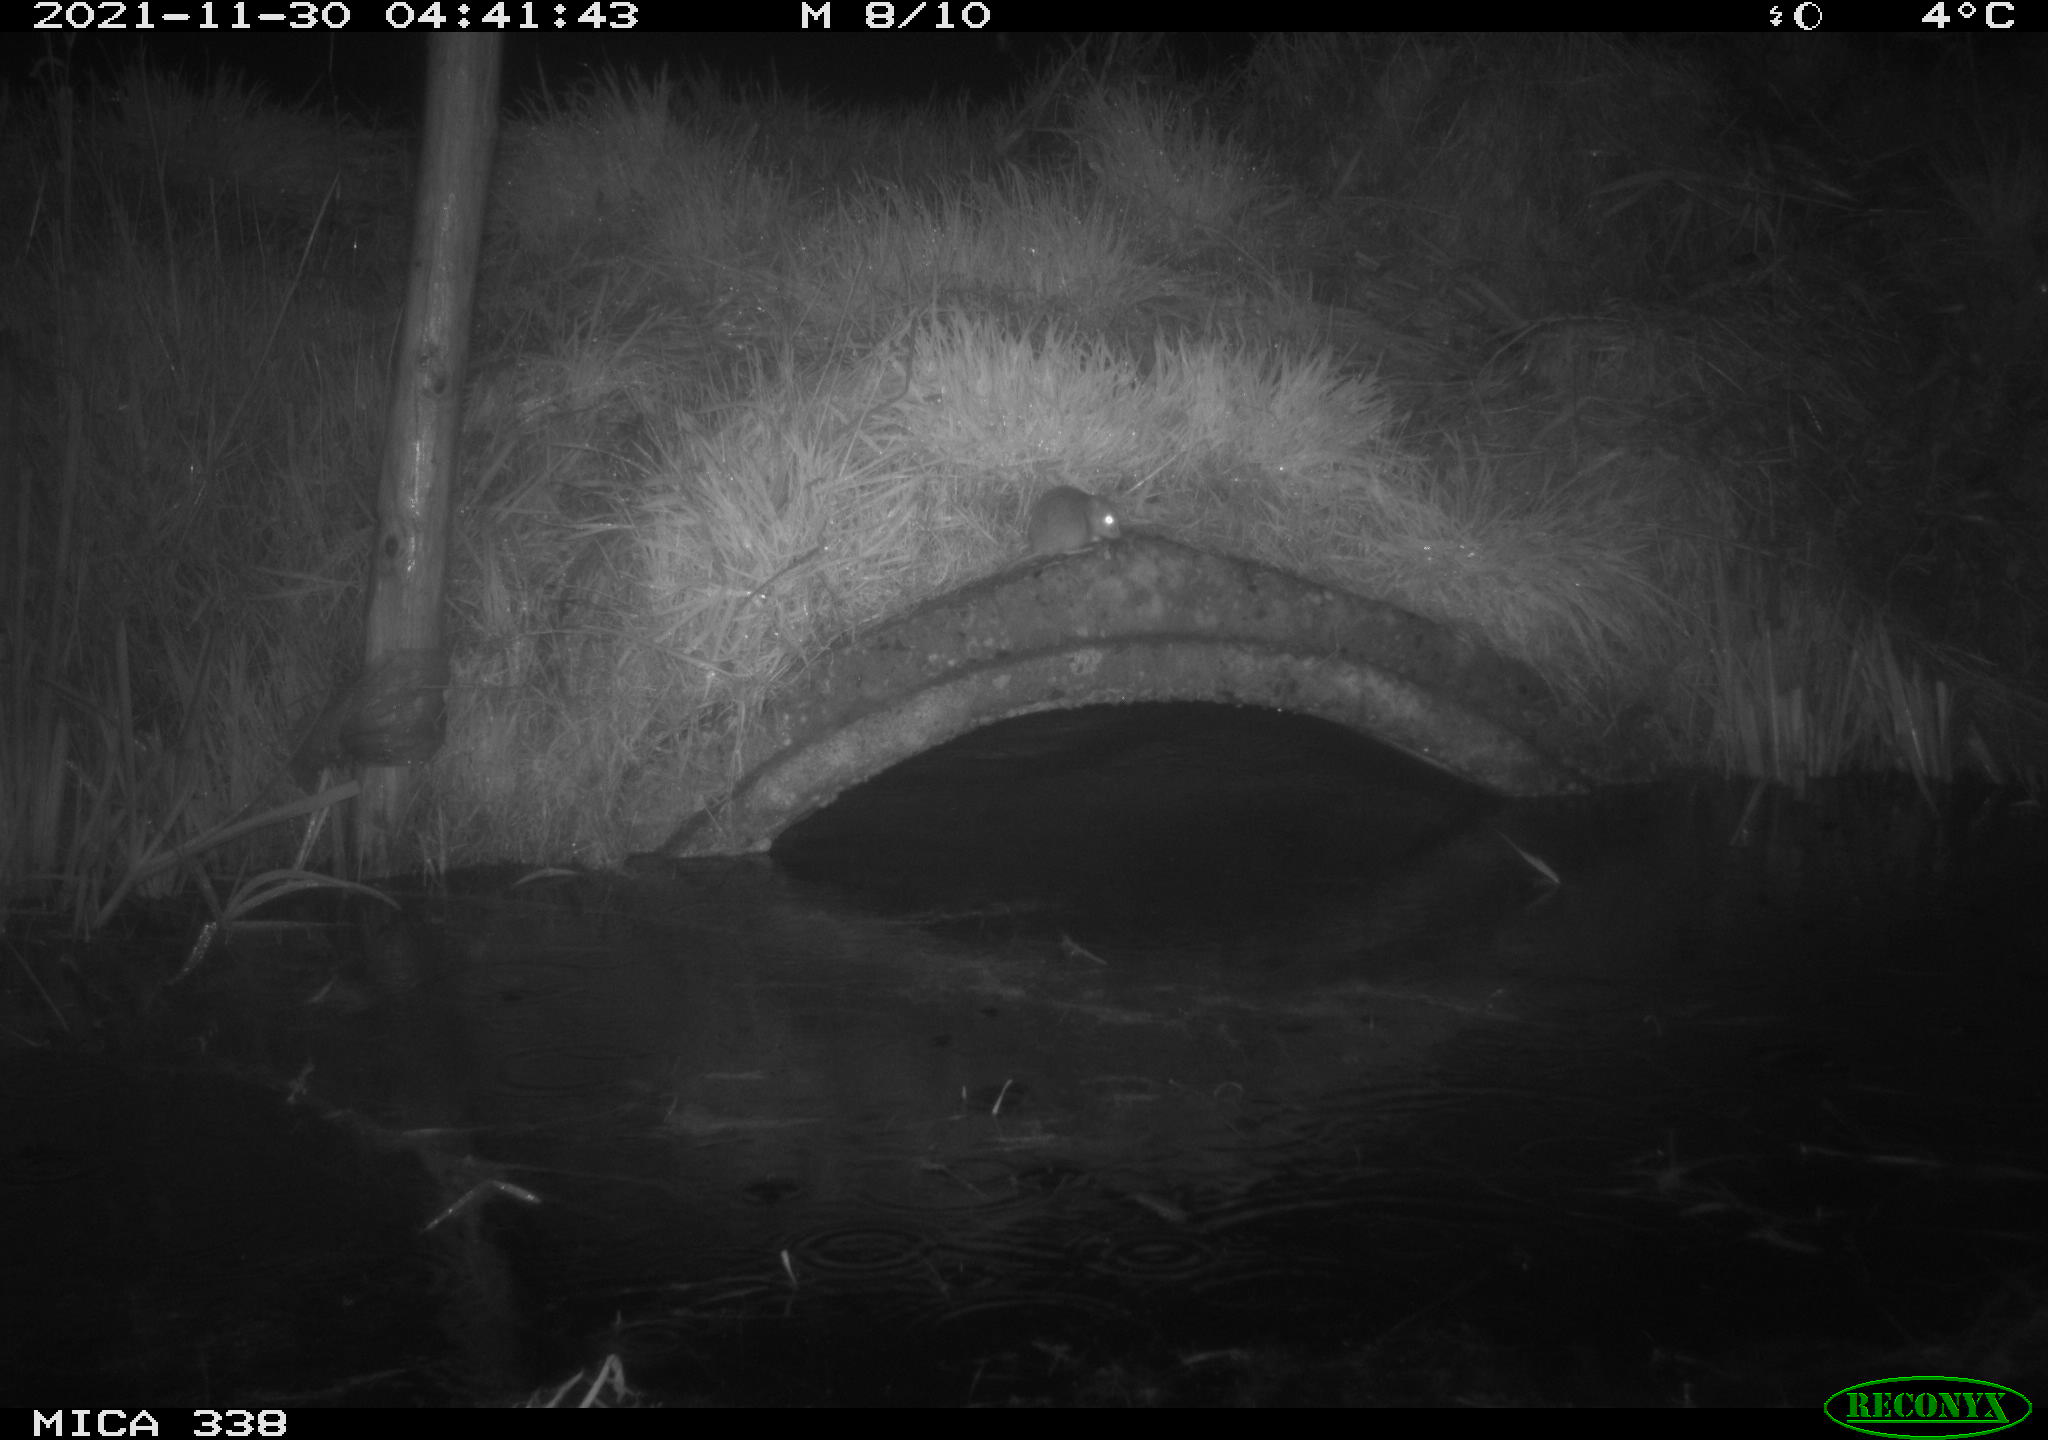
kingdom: Animalia
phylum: Chordata
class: Mammalia
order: Rodentia
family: Muridae
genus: Rattus
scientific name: Rattus norvegicus
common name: Brown rat
